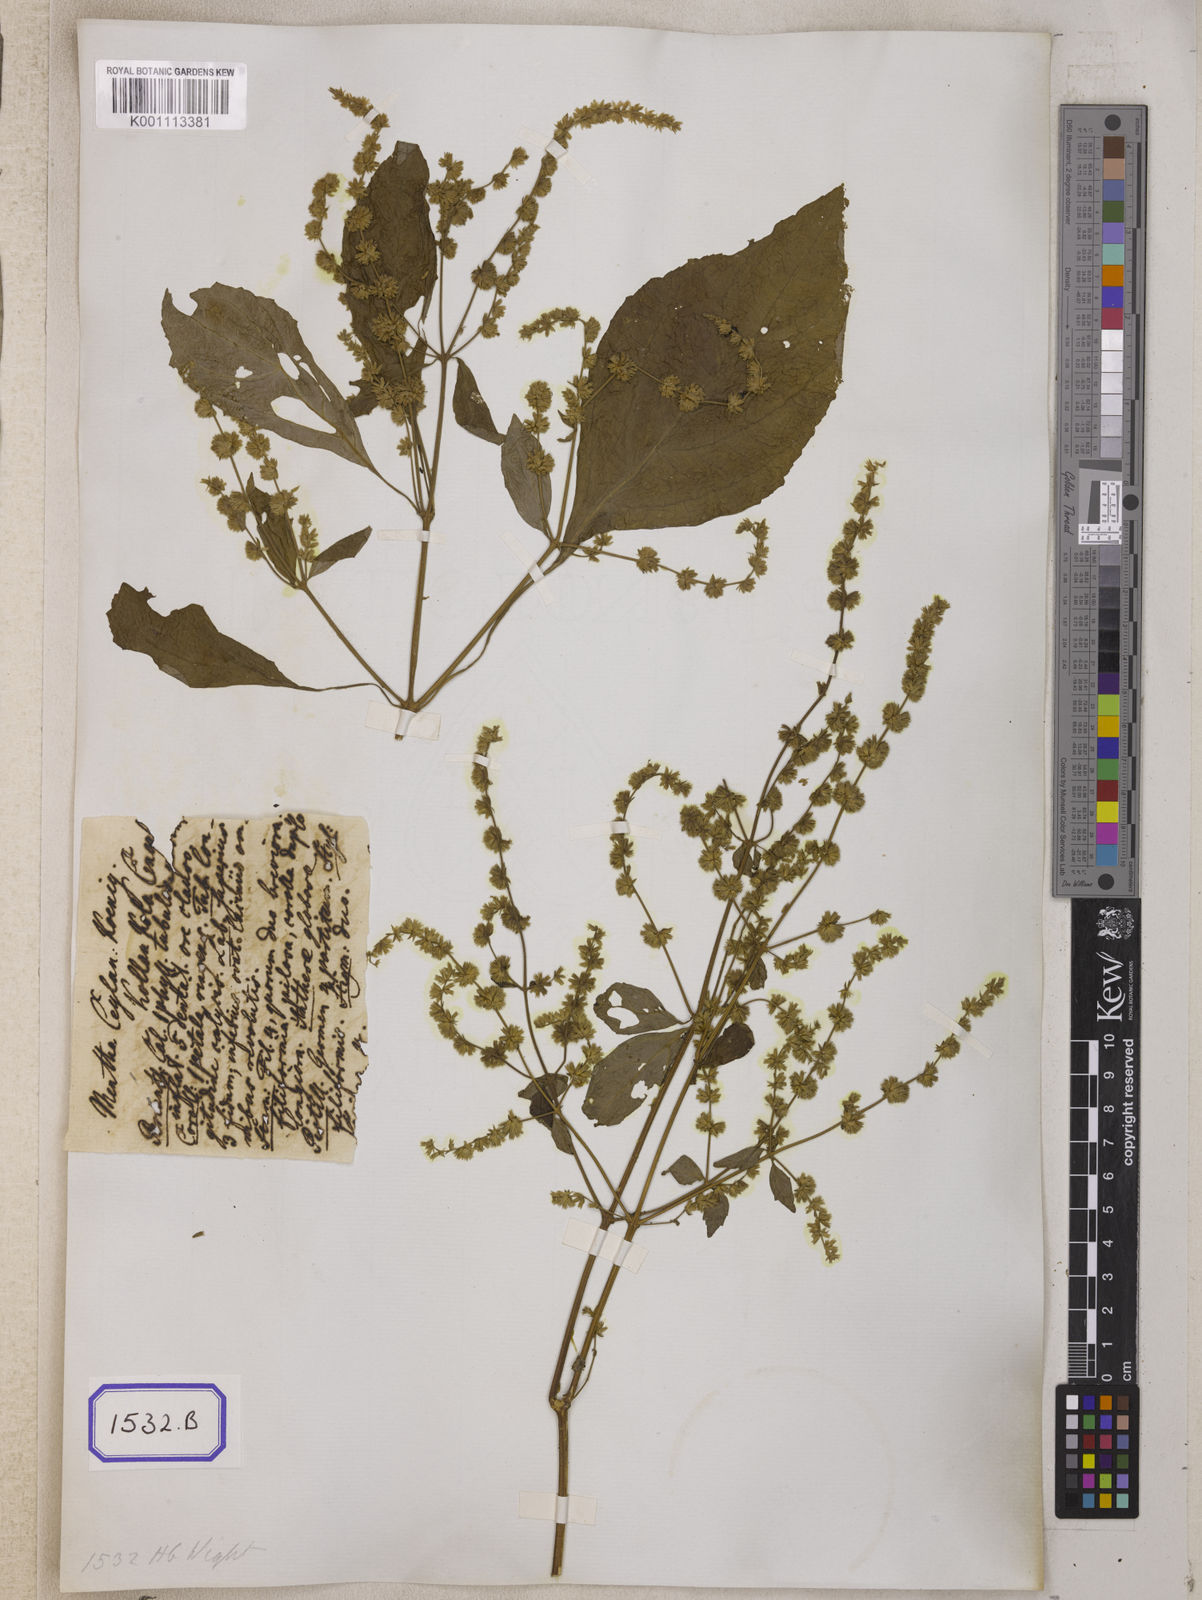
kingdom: Plantae
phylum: Tracheophyta
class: Magnoliopsida
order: Lamiales
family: Lamiaceae
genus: Pogostemon
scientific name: Pogostemon heyneanus
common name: Indian patchouli
